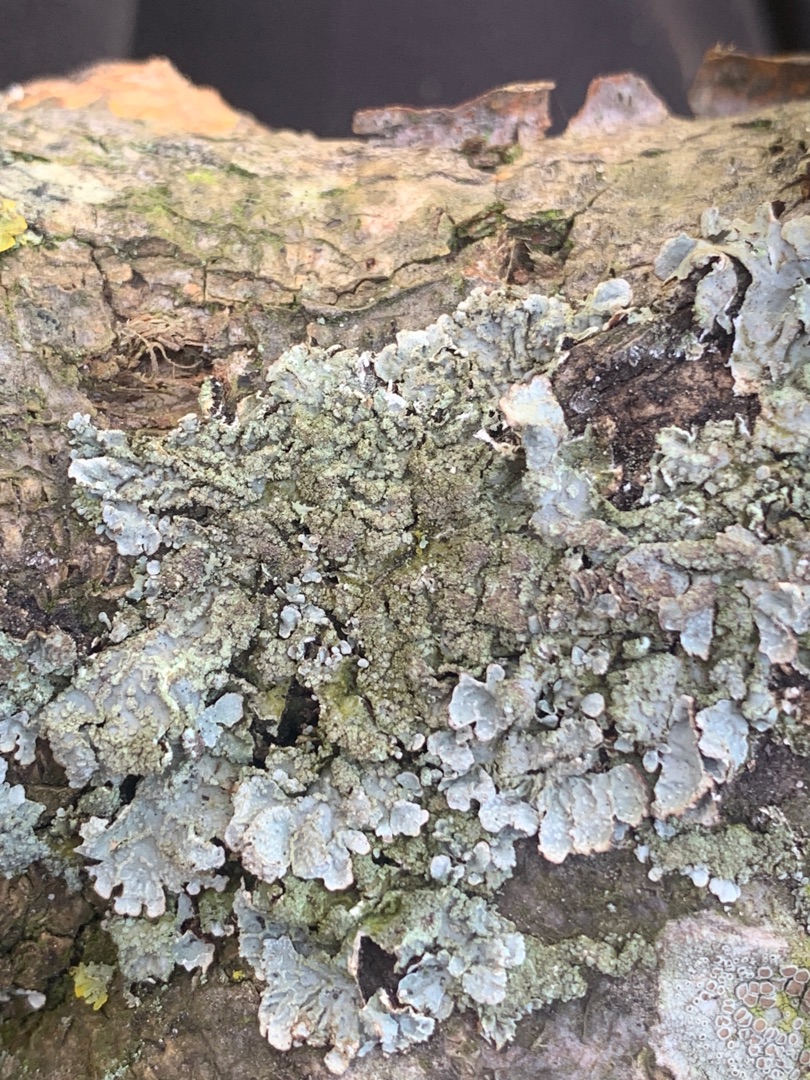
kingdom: Fungi
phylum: Ascomycota
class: Lecanoromycetes
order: Lecanorales
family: Parmeliaceae
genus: Parmelia
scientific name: Parmelia sulcata
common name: Rynket skållav
